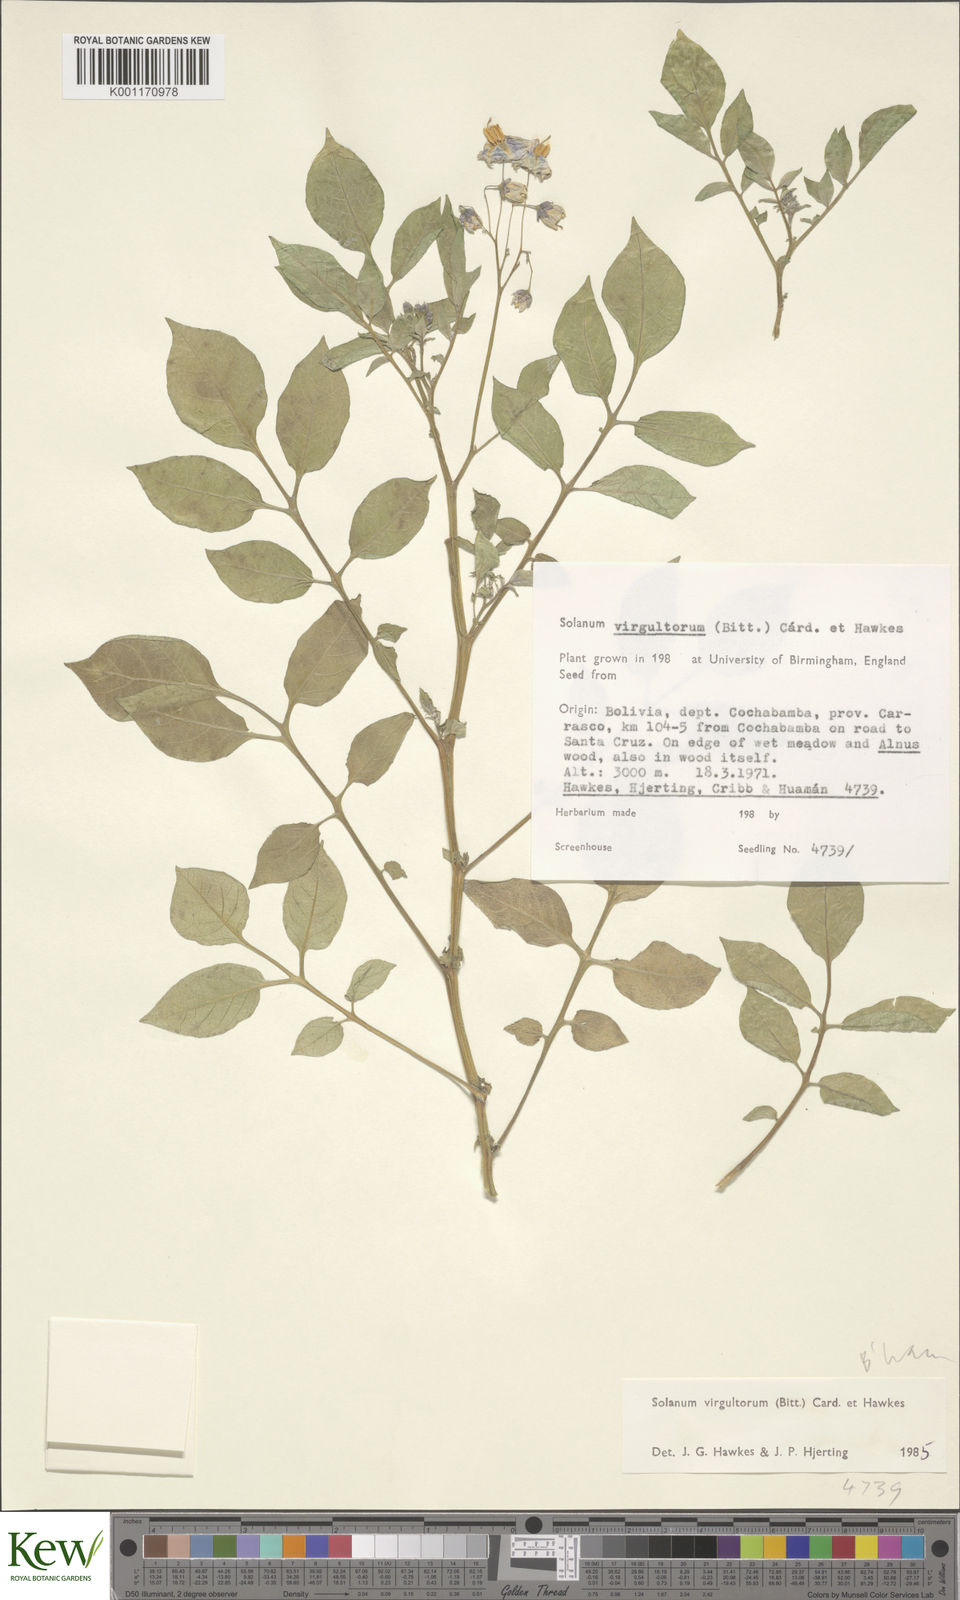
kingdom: Plantae
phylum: Tracheophyta
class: Magnoliopsida
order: Solanales
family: Solanaceae
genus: Solanum
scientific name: Solanum
